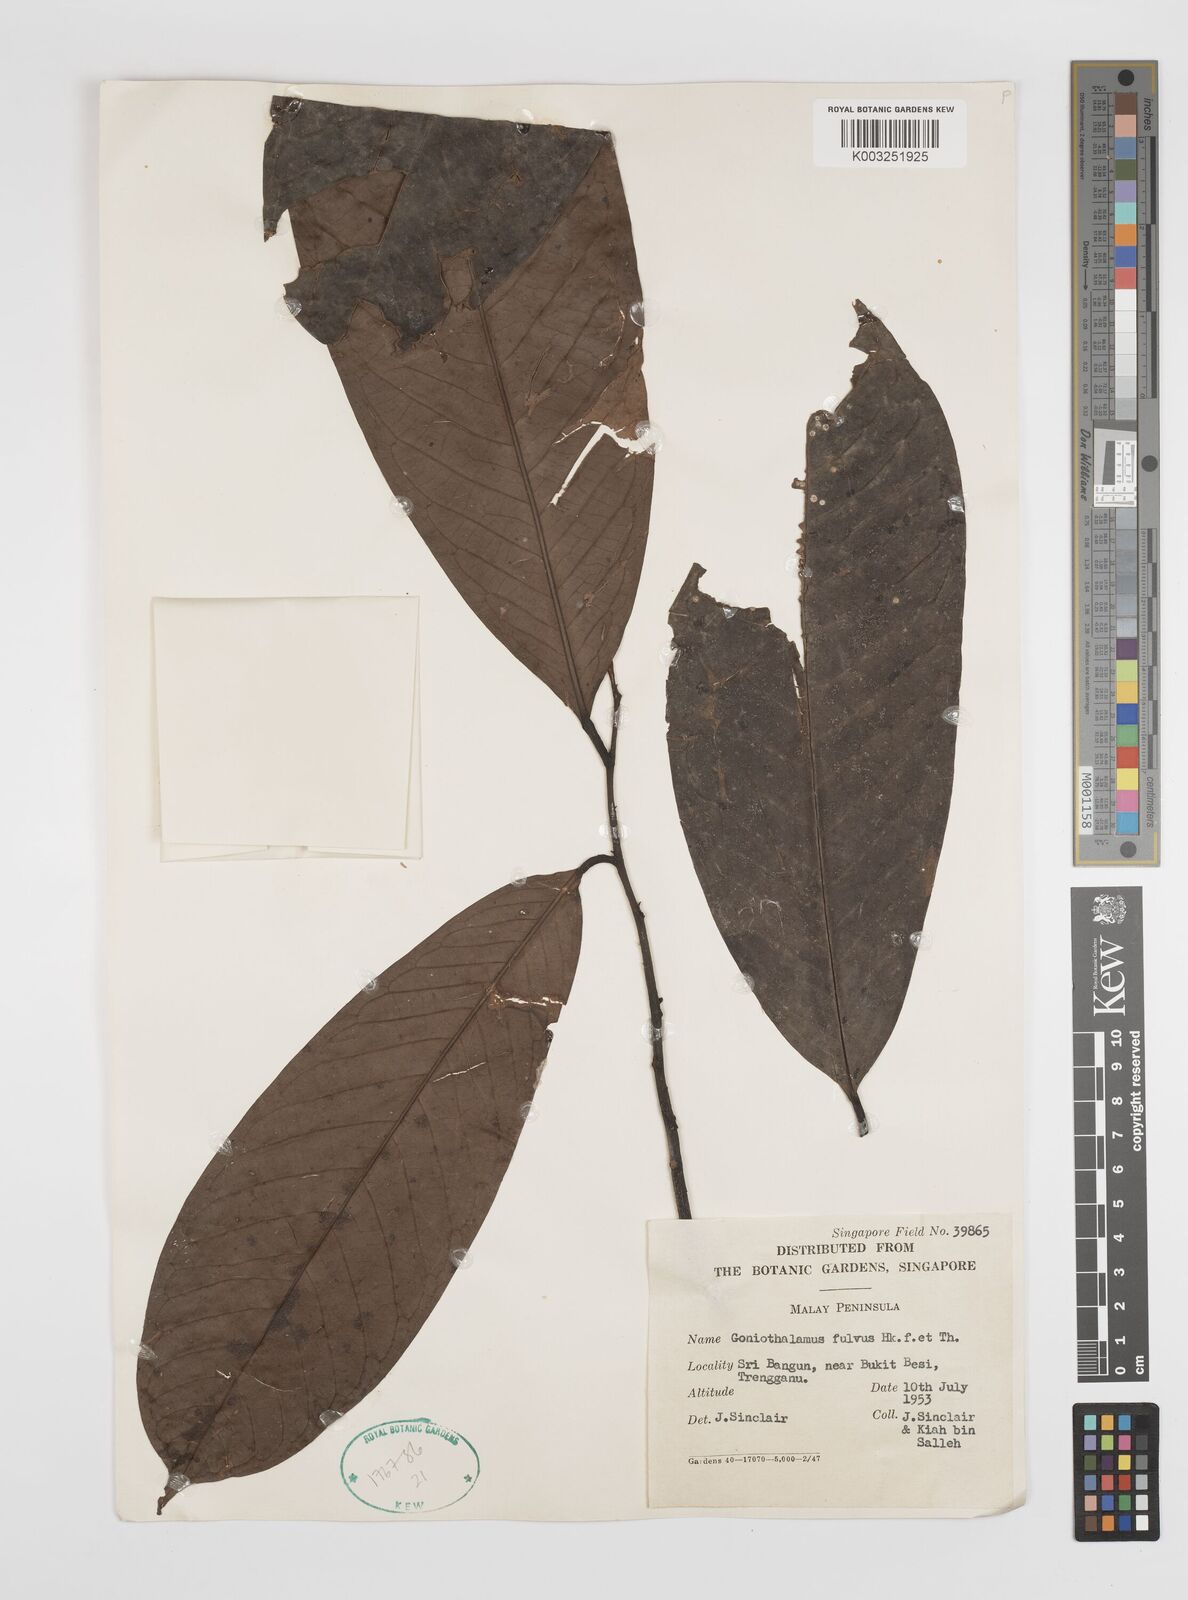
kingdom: Plantae
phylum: Tracheophyta
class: Magnoliopsida
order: Magnoliales
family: Annonaceae
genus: Goniothalamus
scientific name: Goniothalamus fulvus
